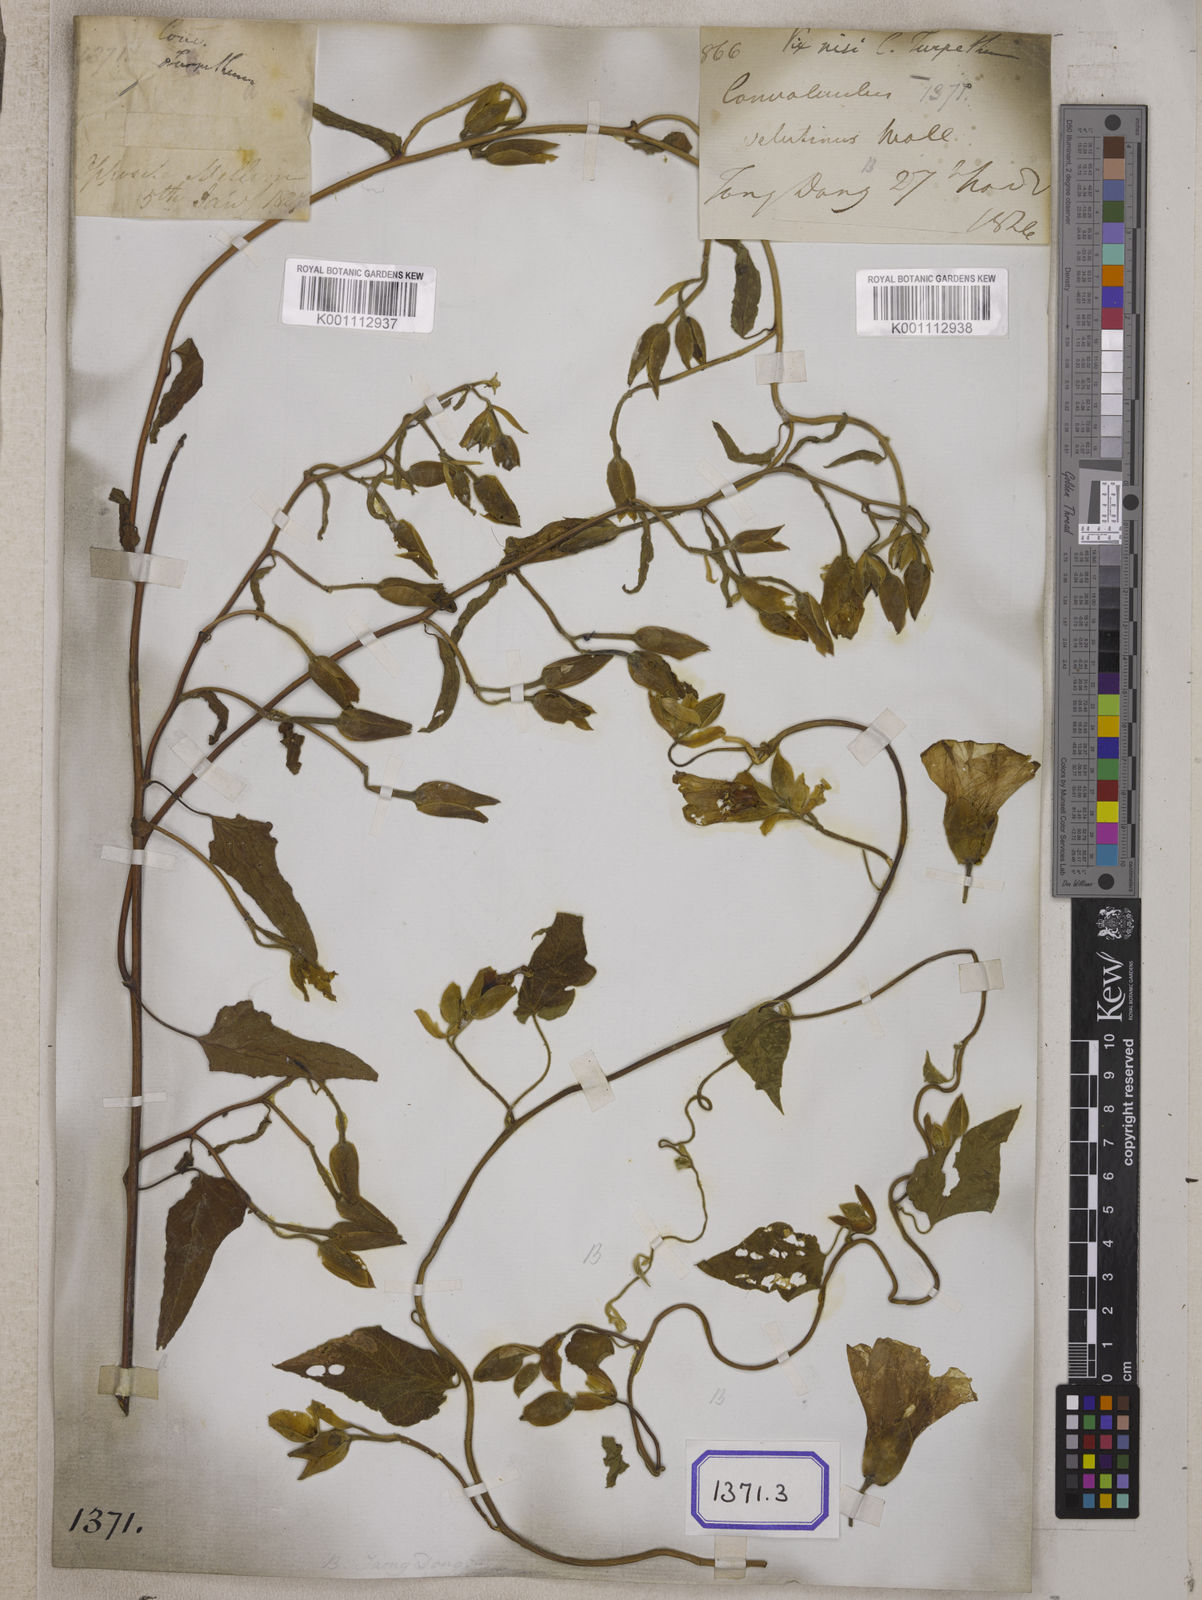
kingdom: Plantae
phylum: Tracheophyta
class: Magnoliopsida
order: Solanales
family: Convolvulaceae
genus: Operculina
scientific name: Operculina turpethum
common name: Transparent wood-rose
